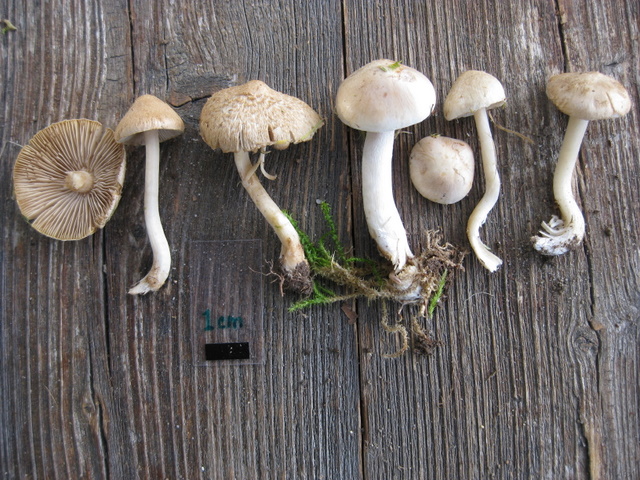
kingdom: Fungi
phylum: Basidiomycota
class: Agaricomycetes
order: Agaricales
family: Inocybaceae
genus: Inocybe
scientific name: Inocybe sindonia
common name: bleg trævlhat
